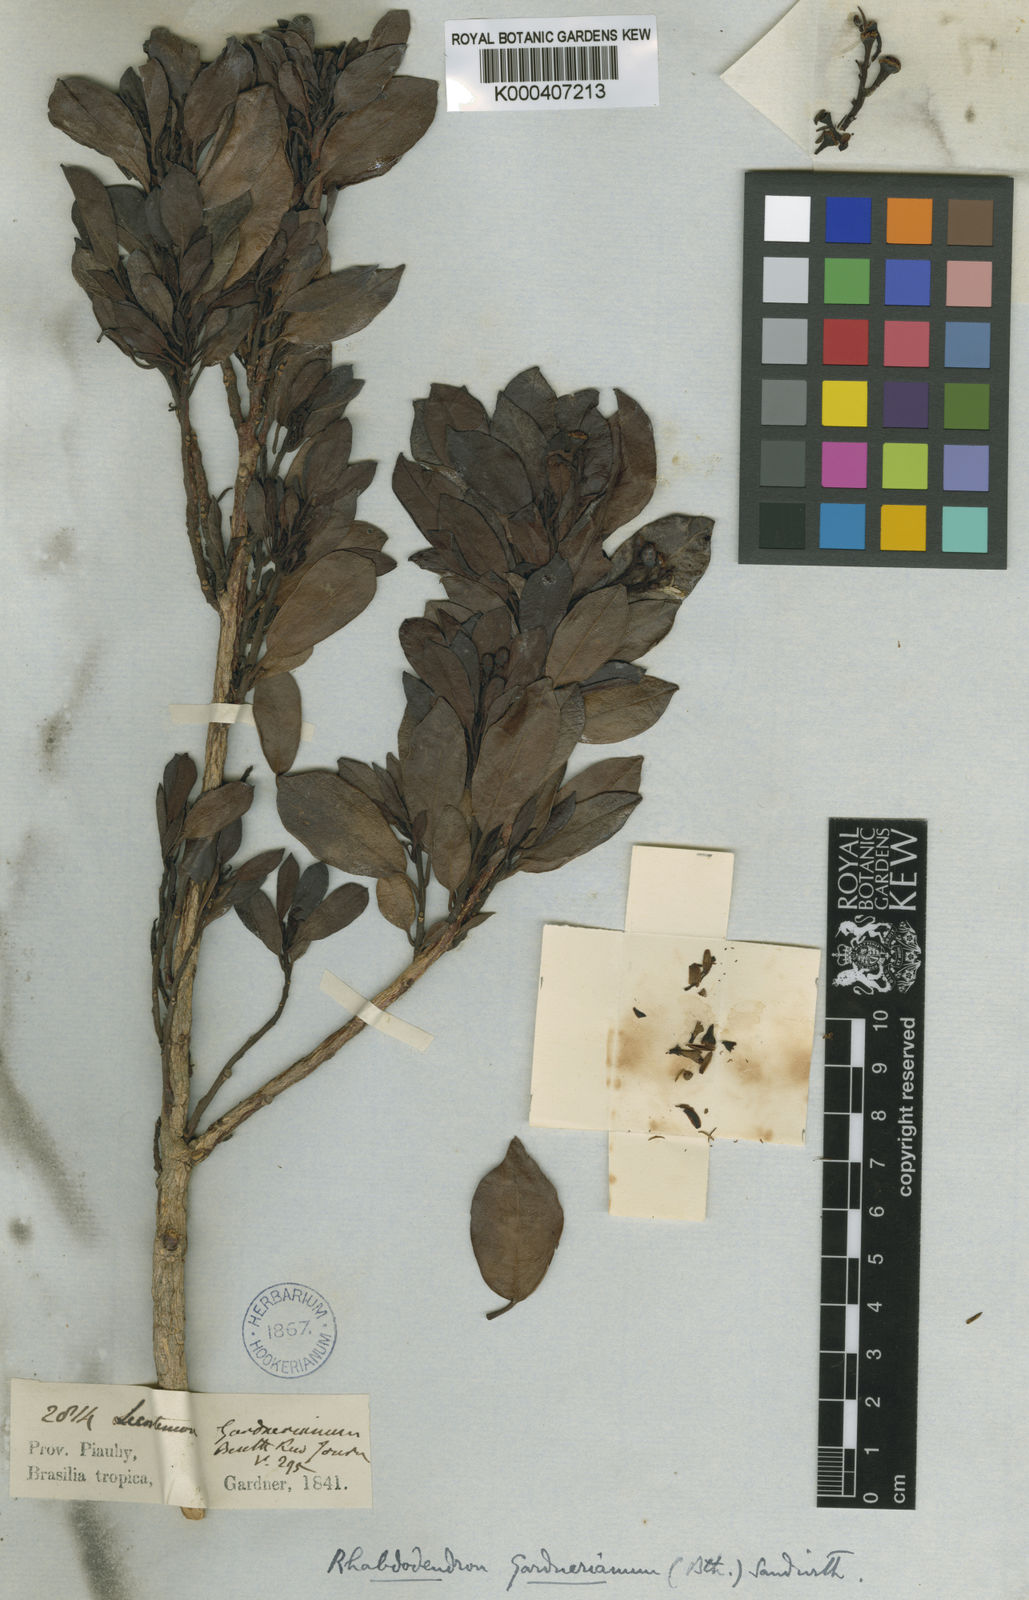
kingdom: Plantae
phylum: Tracheophyta
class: Magnoliopsida
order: Caryophyllales
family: Rhabdodendraceae
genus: Rhabdodendron
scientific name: Rhabdodendron gardnerianum
